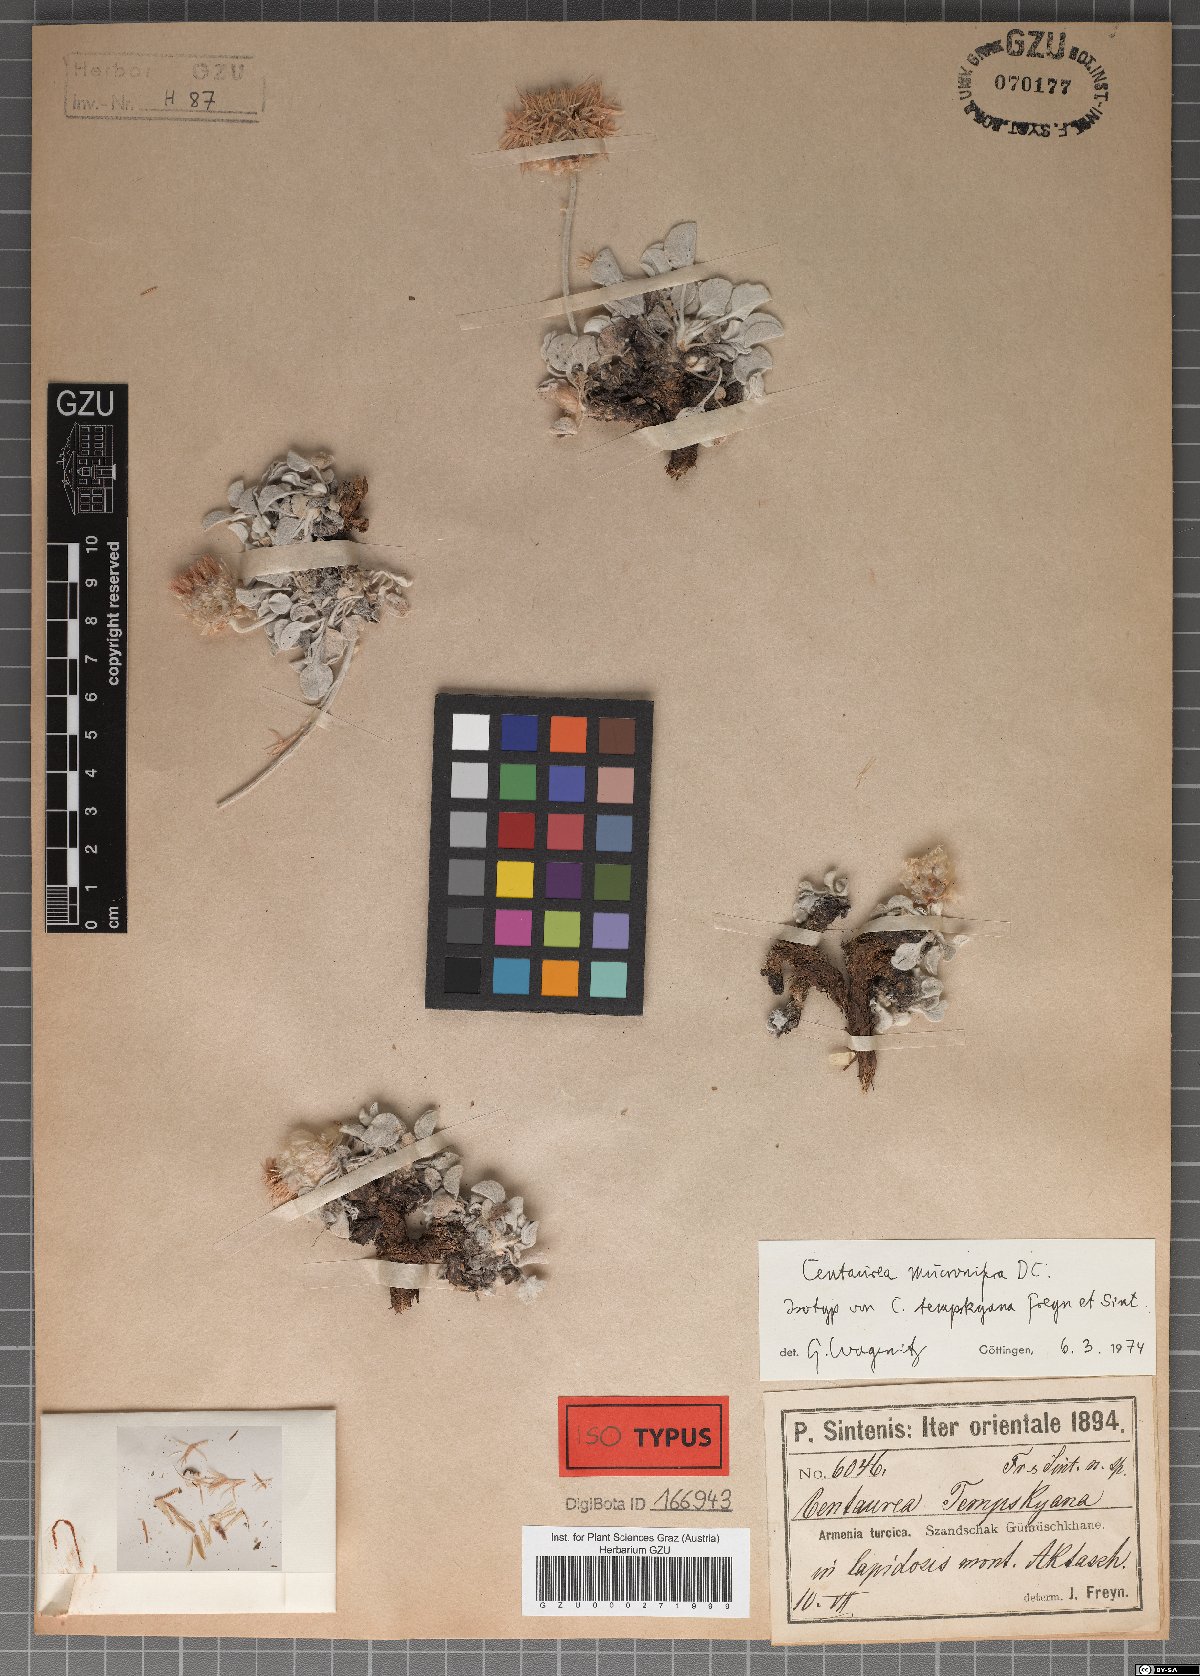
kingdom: Plantae
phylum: Tracheophyta
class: Magnoliopsida
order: Asterales
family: Asteraceae
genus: Psephellus
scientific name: Psephellus mucronifer
